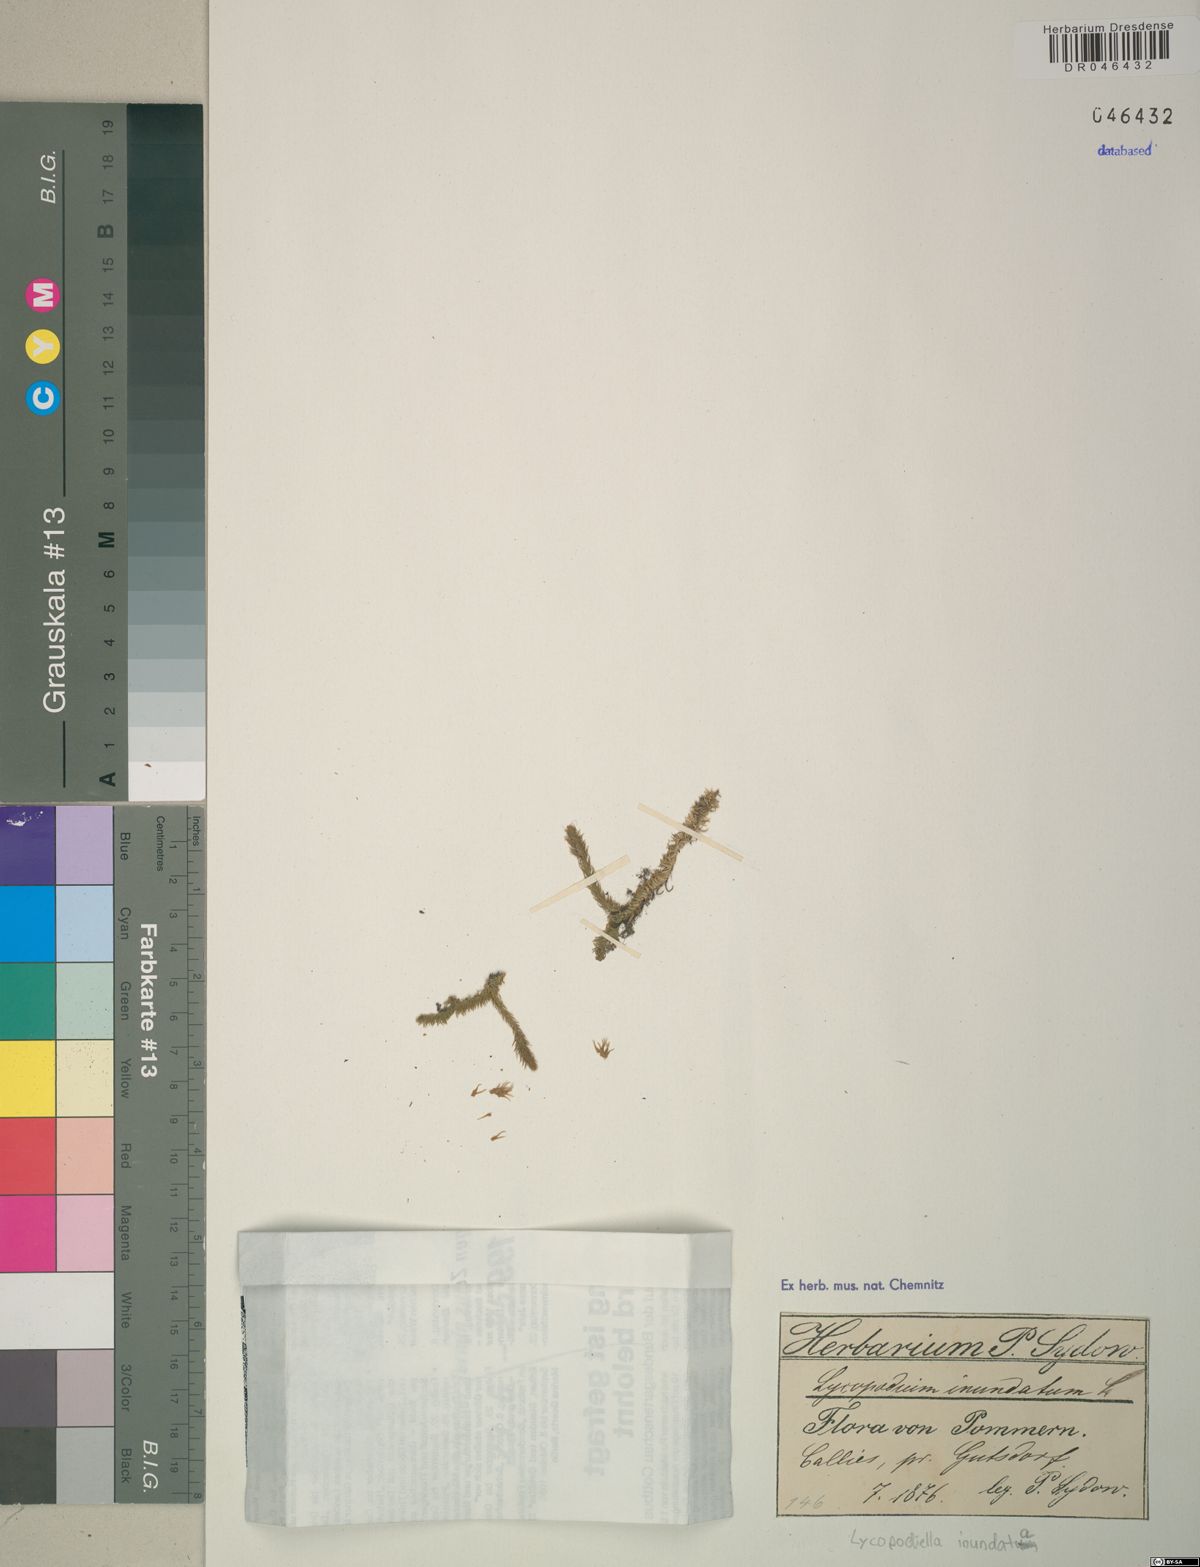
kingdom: Plantae
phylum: Tracheophyta
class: Lycopodiopsida
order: Lycopodiales
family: Lycopodiaceae
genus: Lycopodiella
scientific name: Lycopodiella inundata
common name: Marsh clubmoss
